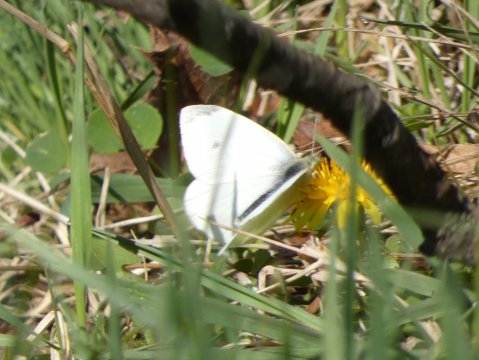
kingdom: Animalia
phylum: Arthropoda
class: Insecta
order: Lepidoptera
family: Pieridae
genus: Pieris
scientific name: Pieris rapae
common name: Cabbage White
